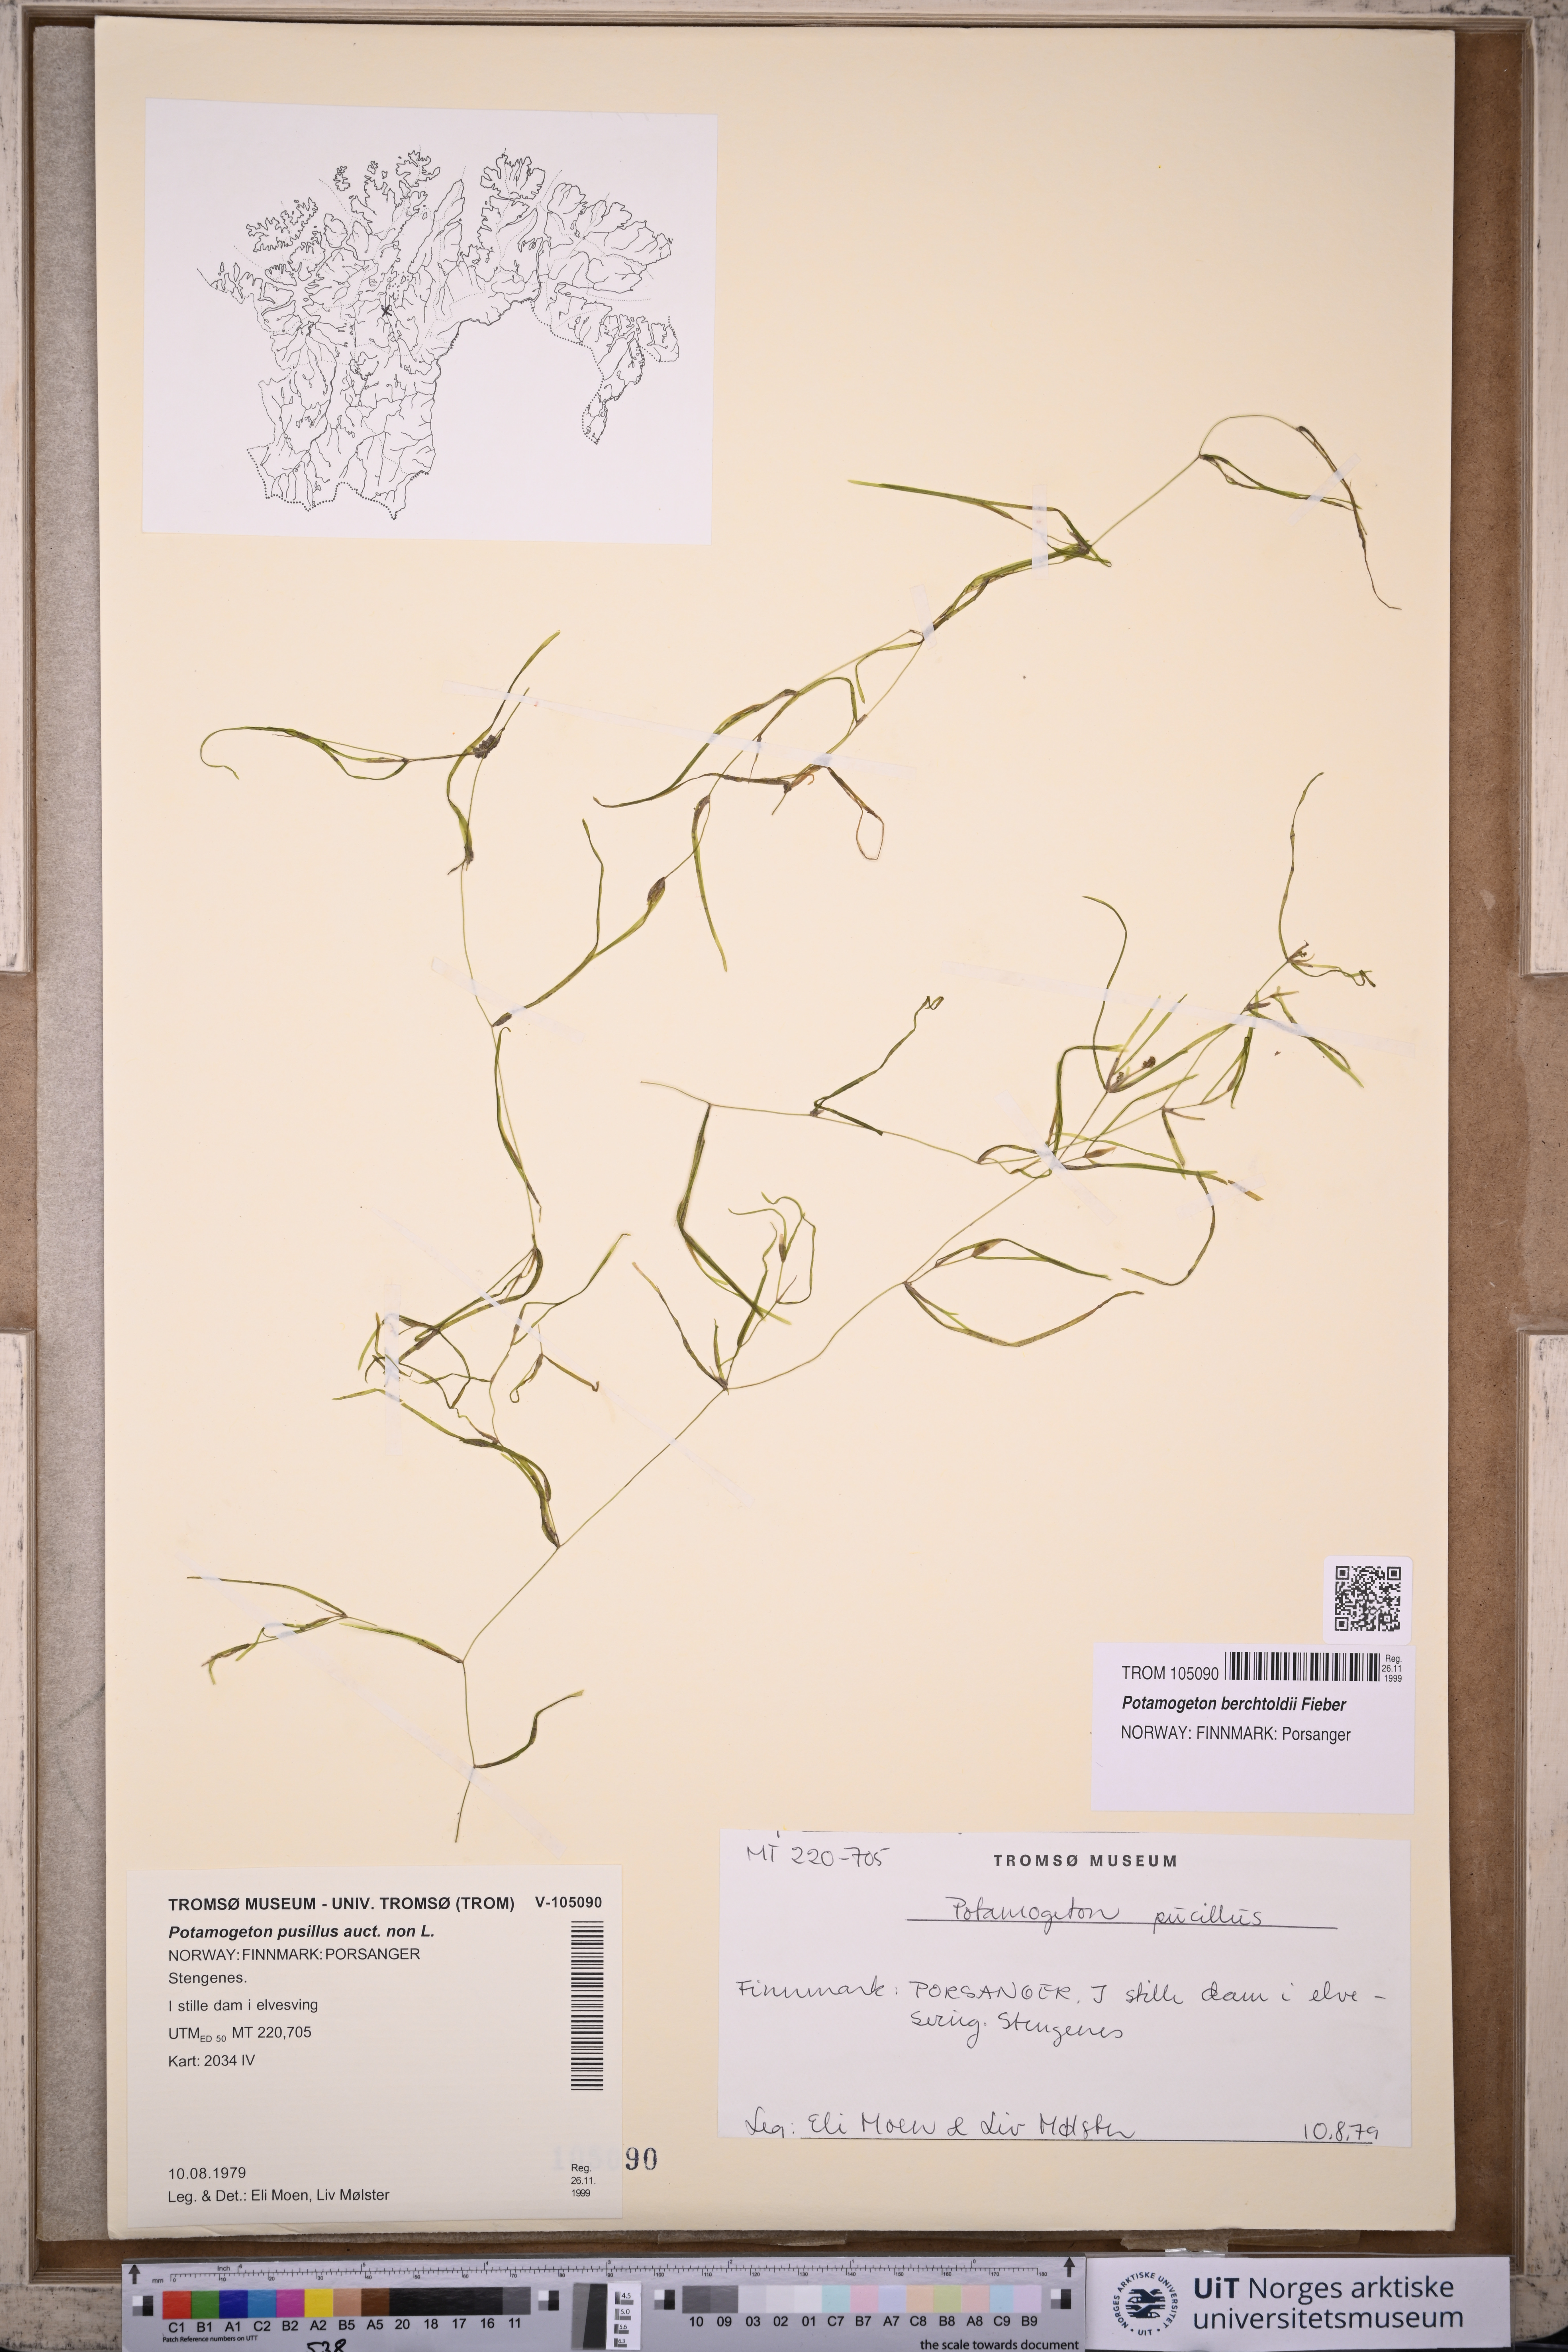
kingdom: Plantae
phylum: Tracheophyta
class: Liliopsida
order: Alismatales
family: Potamogetonaceae
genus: Potamogeton
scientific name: Potamogeton pusillus
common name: Lesser pondweed
